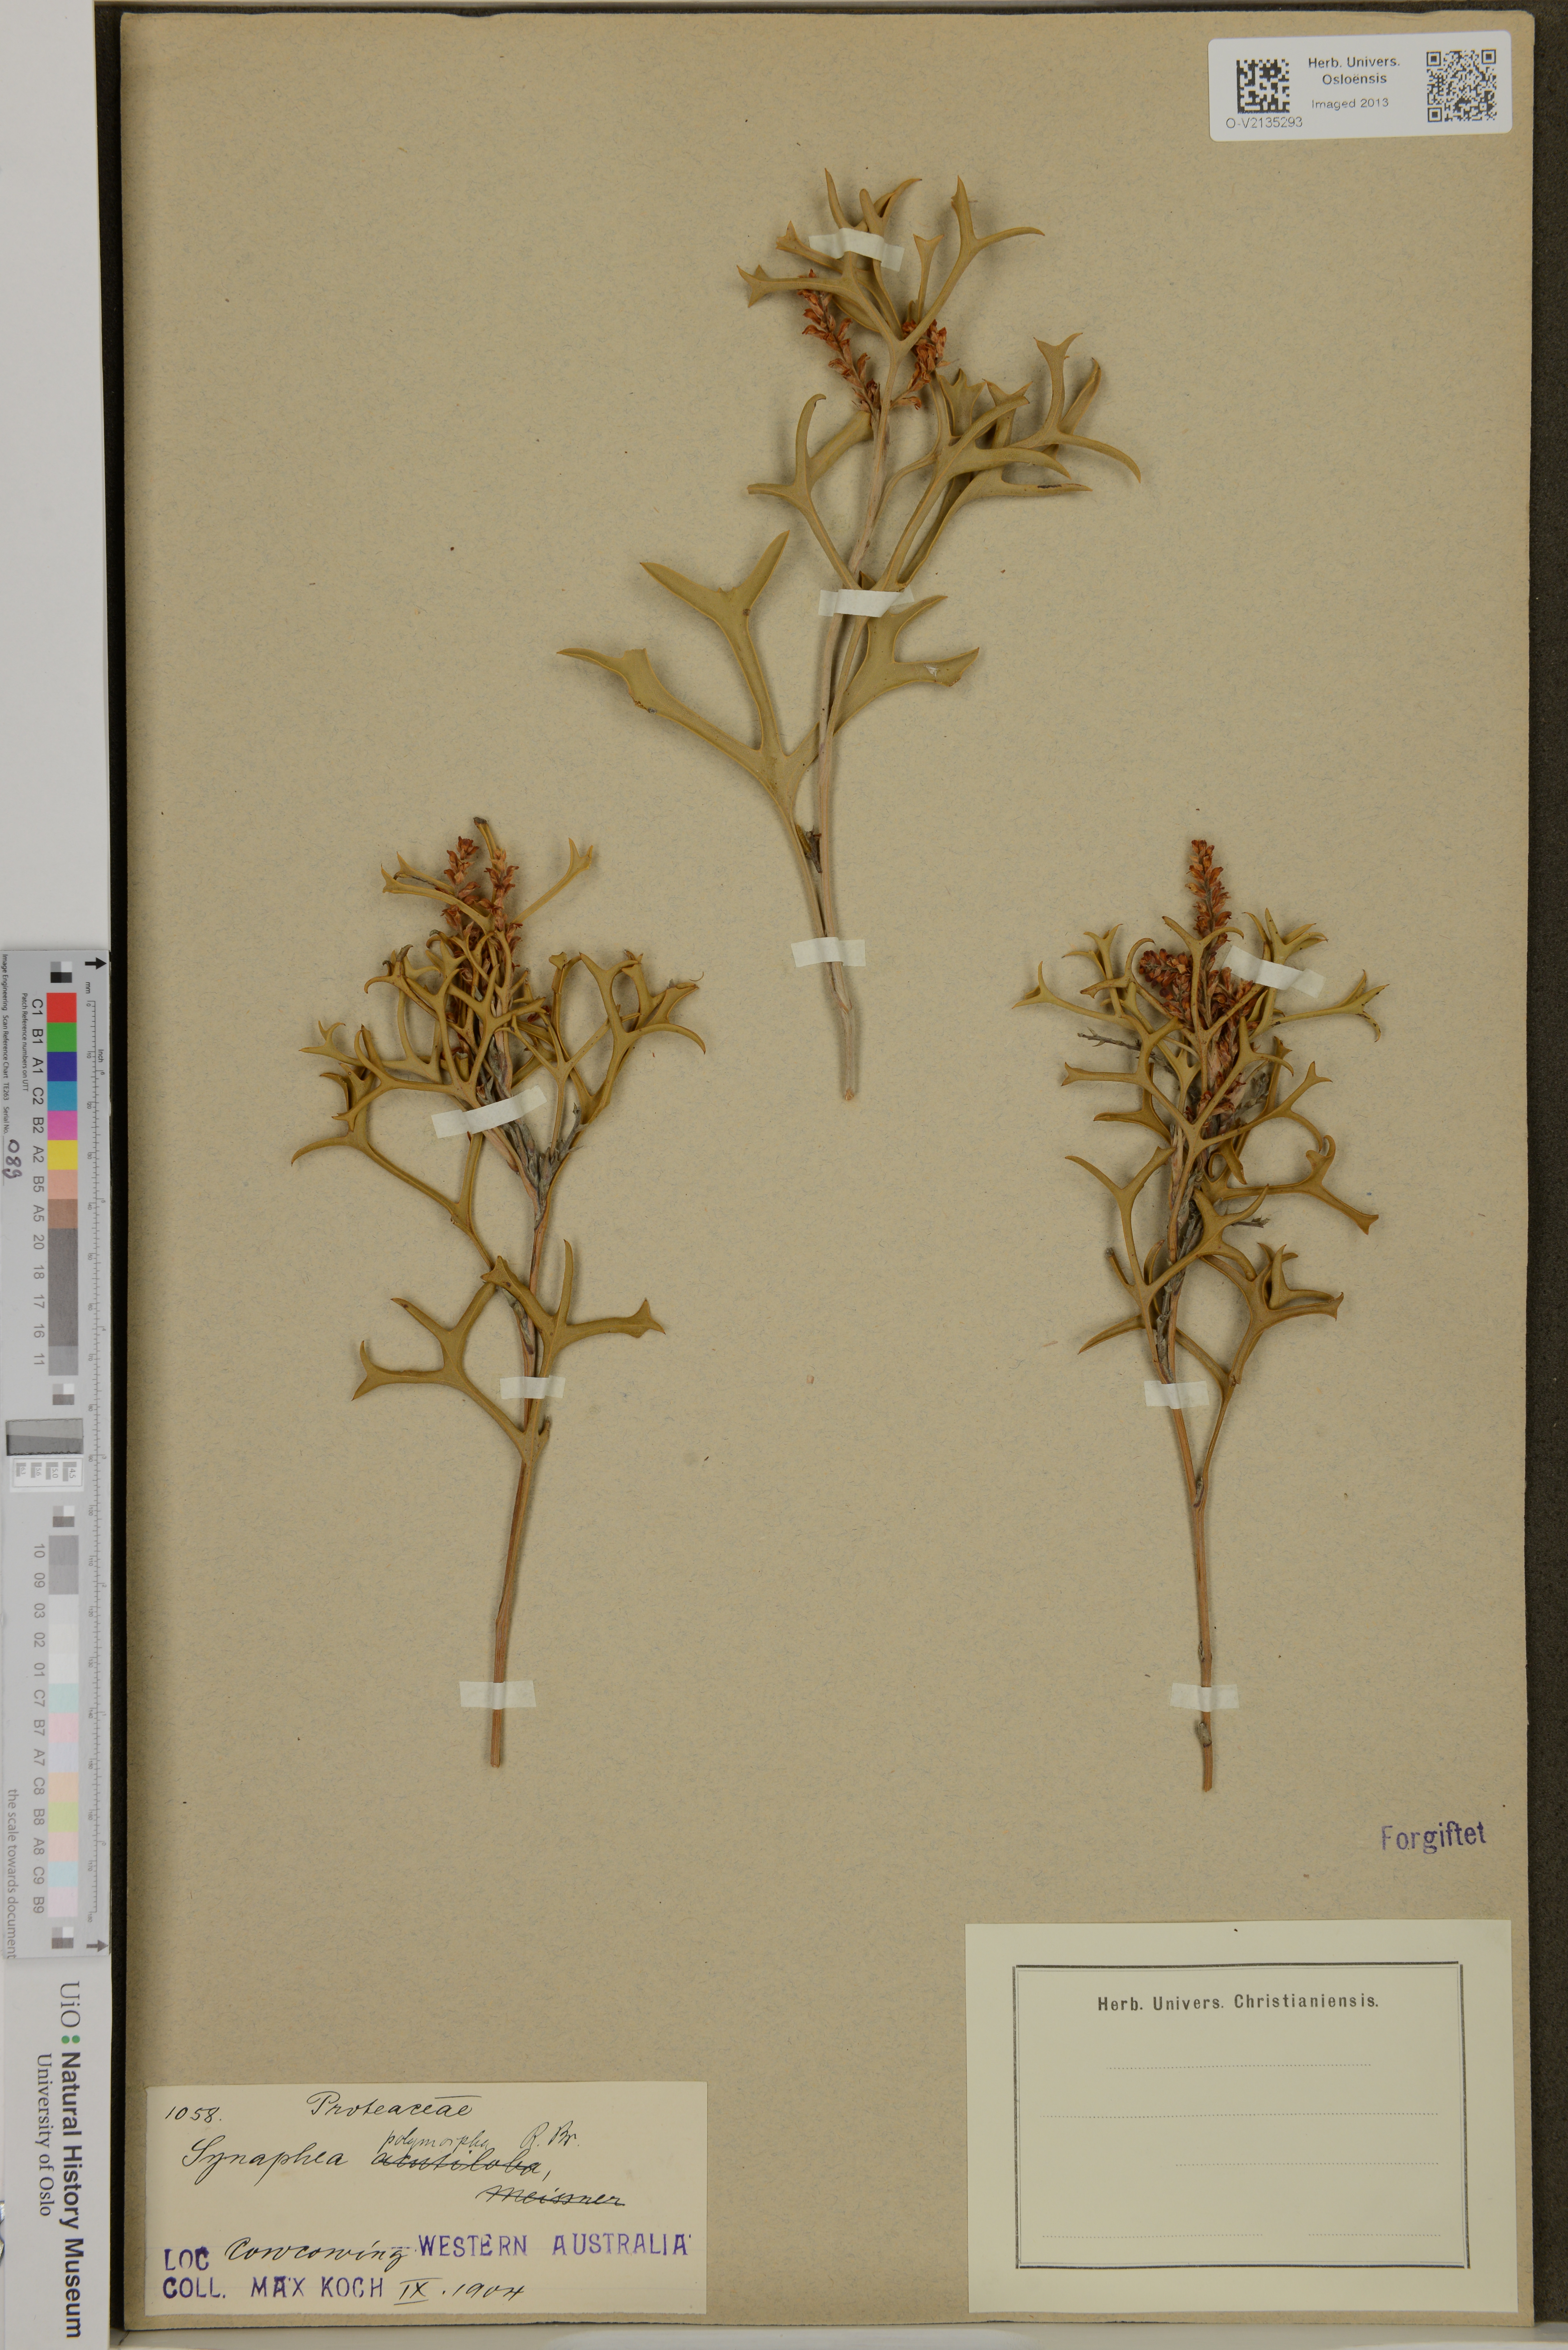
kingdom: Plantae
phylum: Tracheophyta
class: Magnoliopsida
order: Proteales
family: Proteaceae
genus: Synaphea
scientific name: Synaphea polymorpha
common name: Albany synaphea
